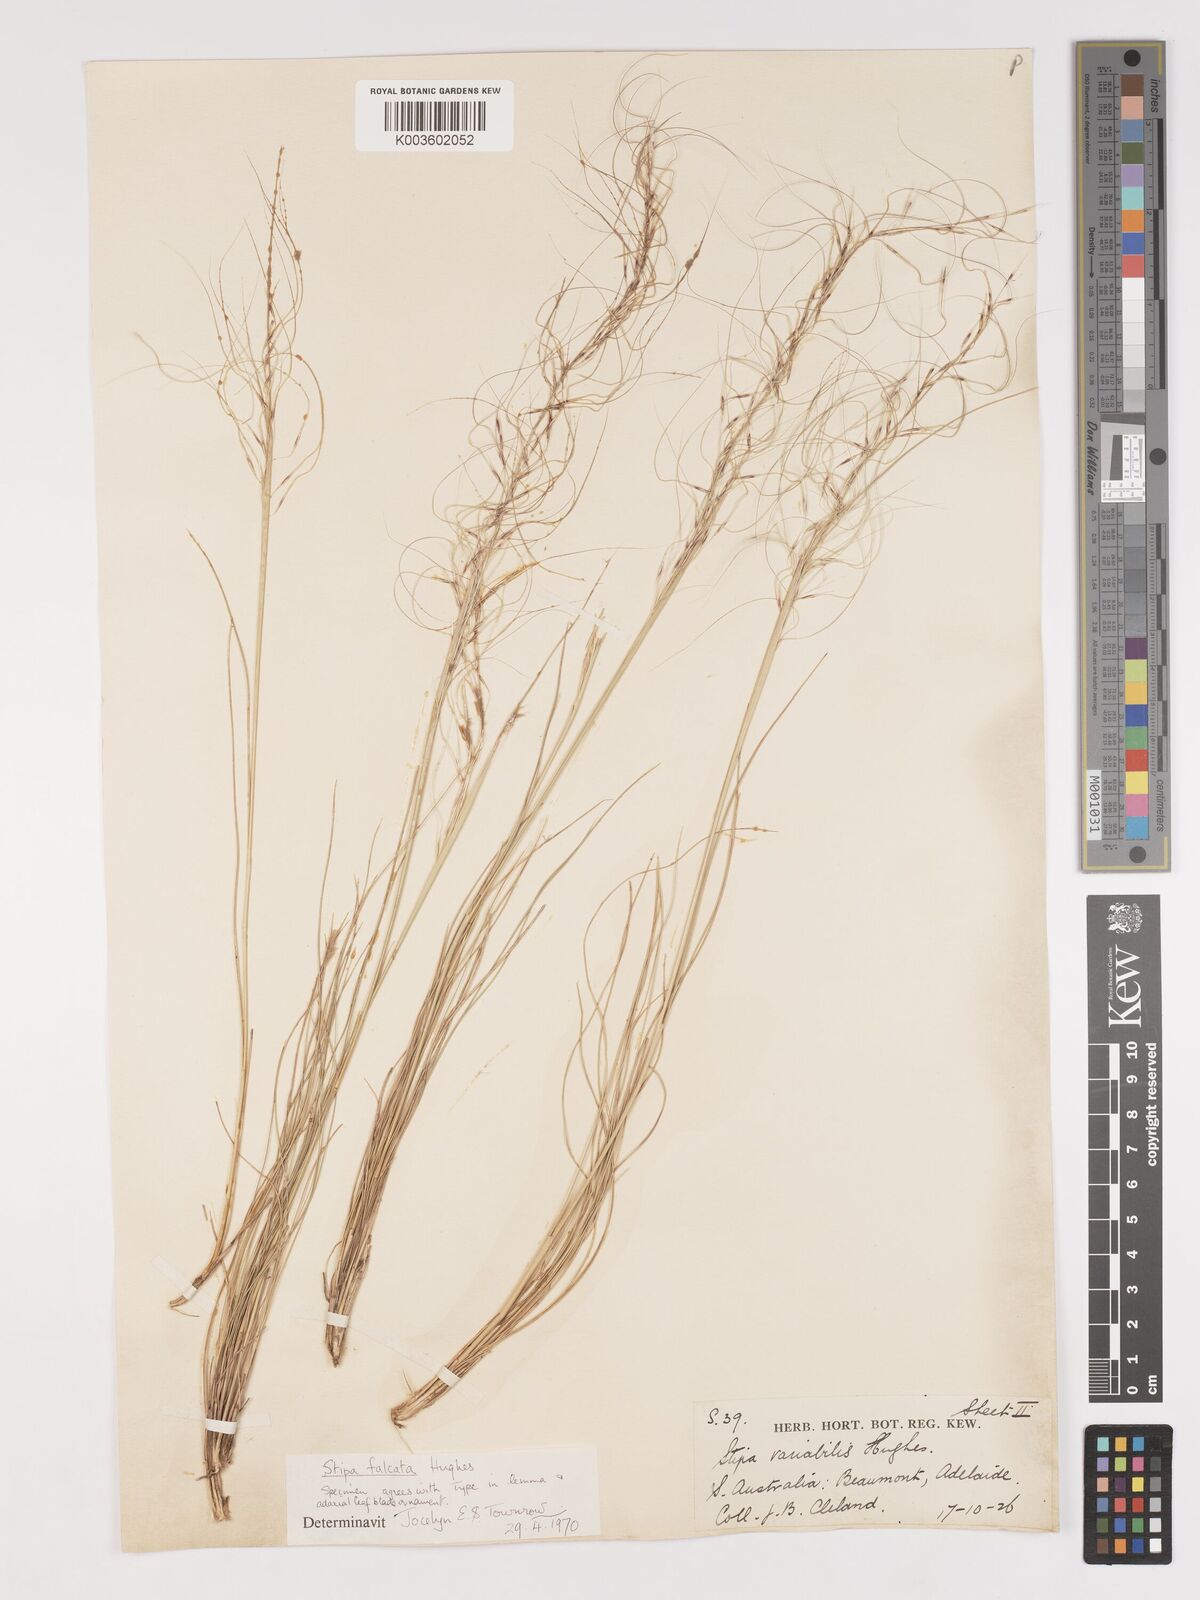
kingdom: Plantae
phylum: Tracheophyta
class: Liliopsida
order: Poales
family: Poaceae
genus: Austrostipa
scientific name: Austrostipa scabra
